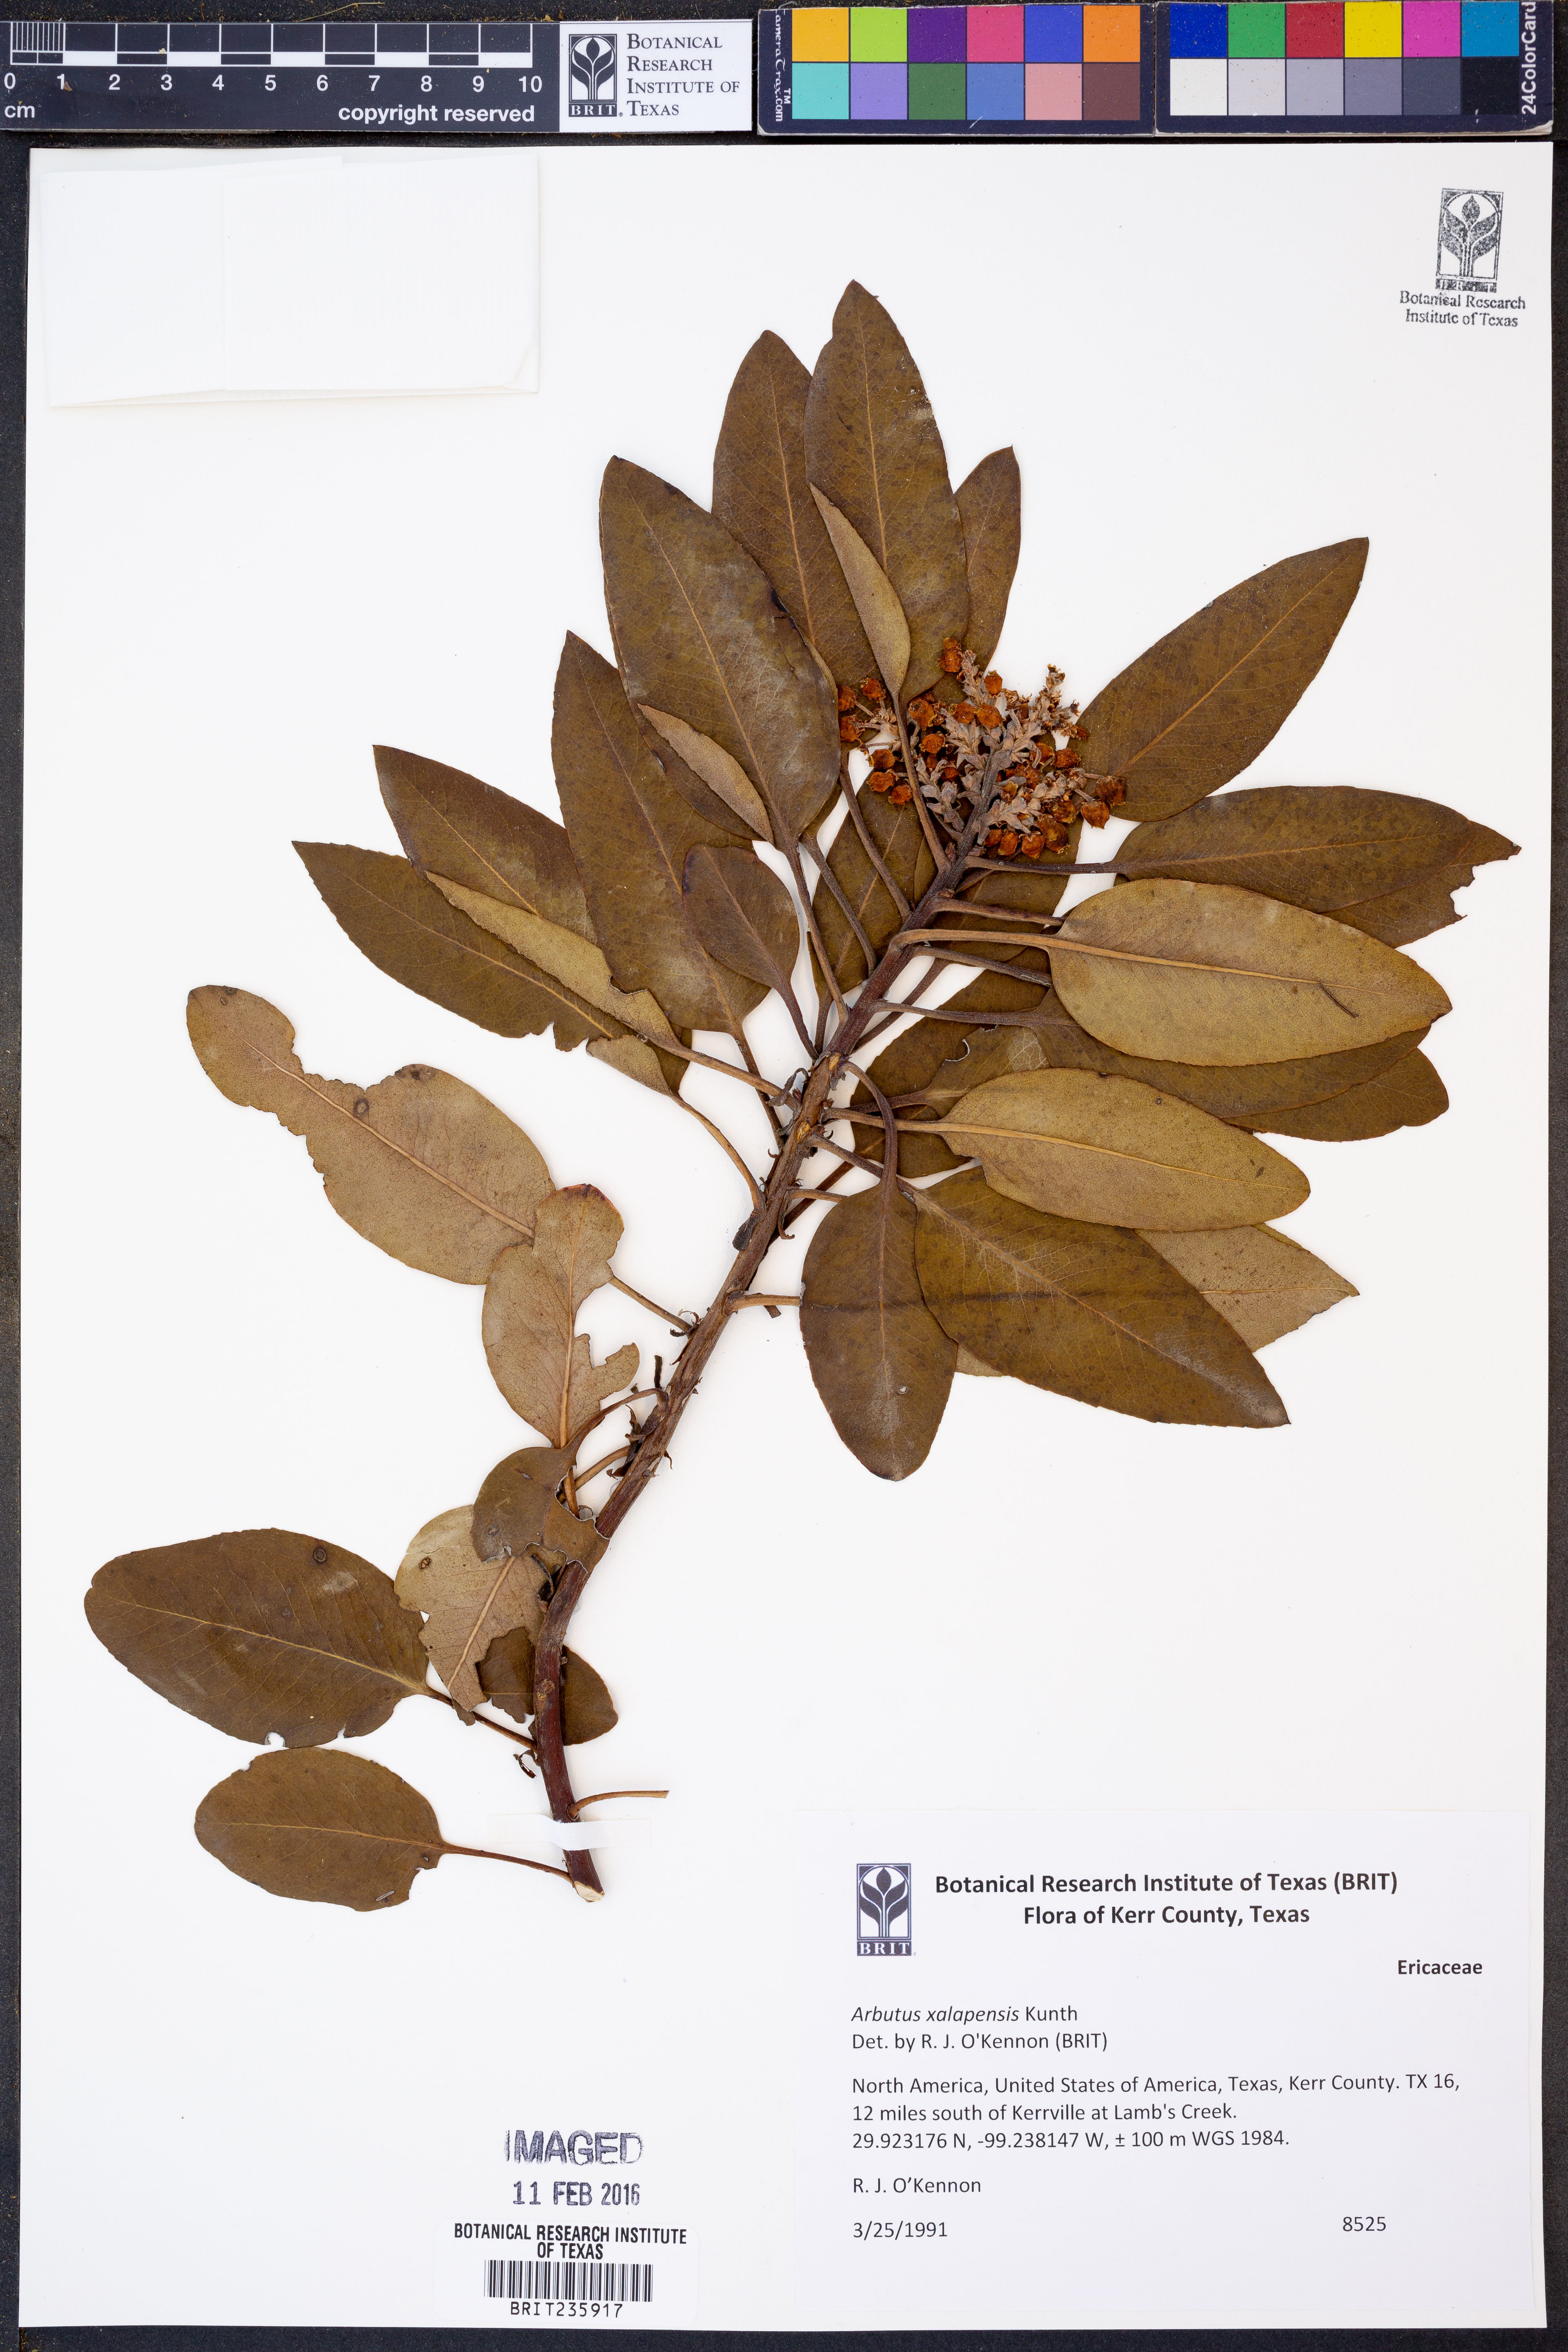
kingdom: Plantae
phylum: Tracheophyta
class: Magnoliopsida
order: Ericales
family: Ericaceae
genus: Arbutus
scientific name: Arbutus xalapensis
